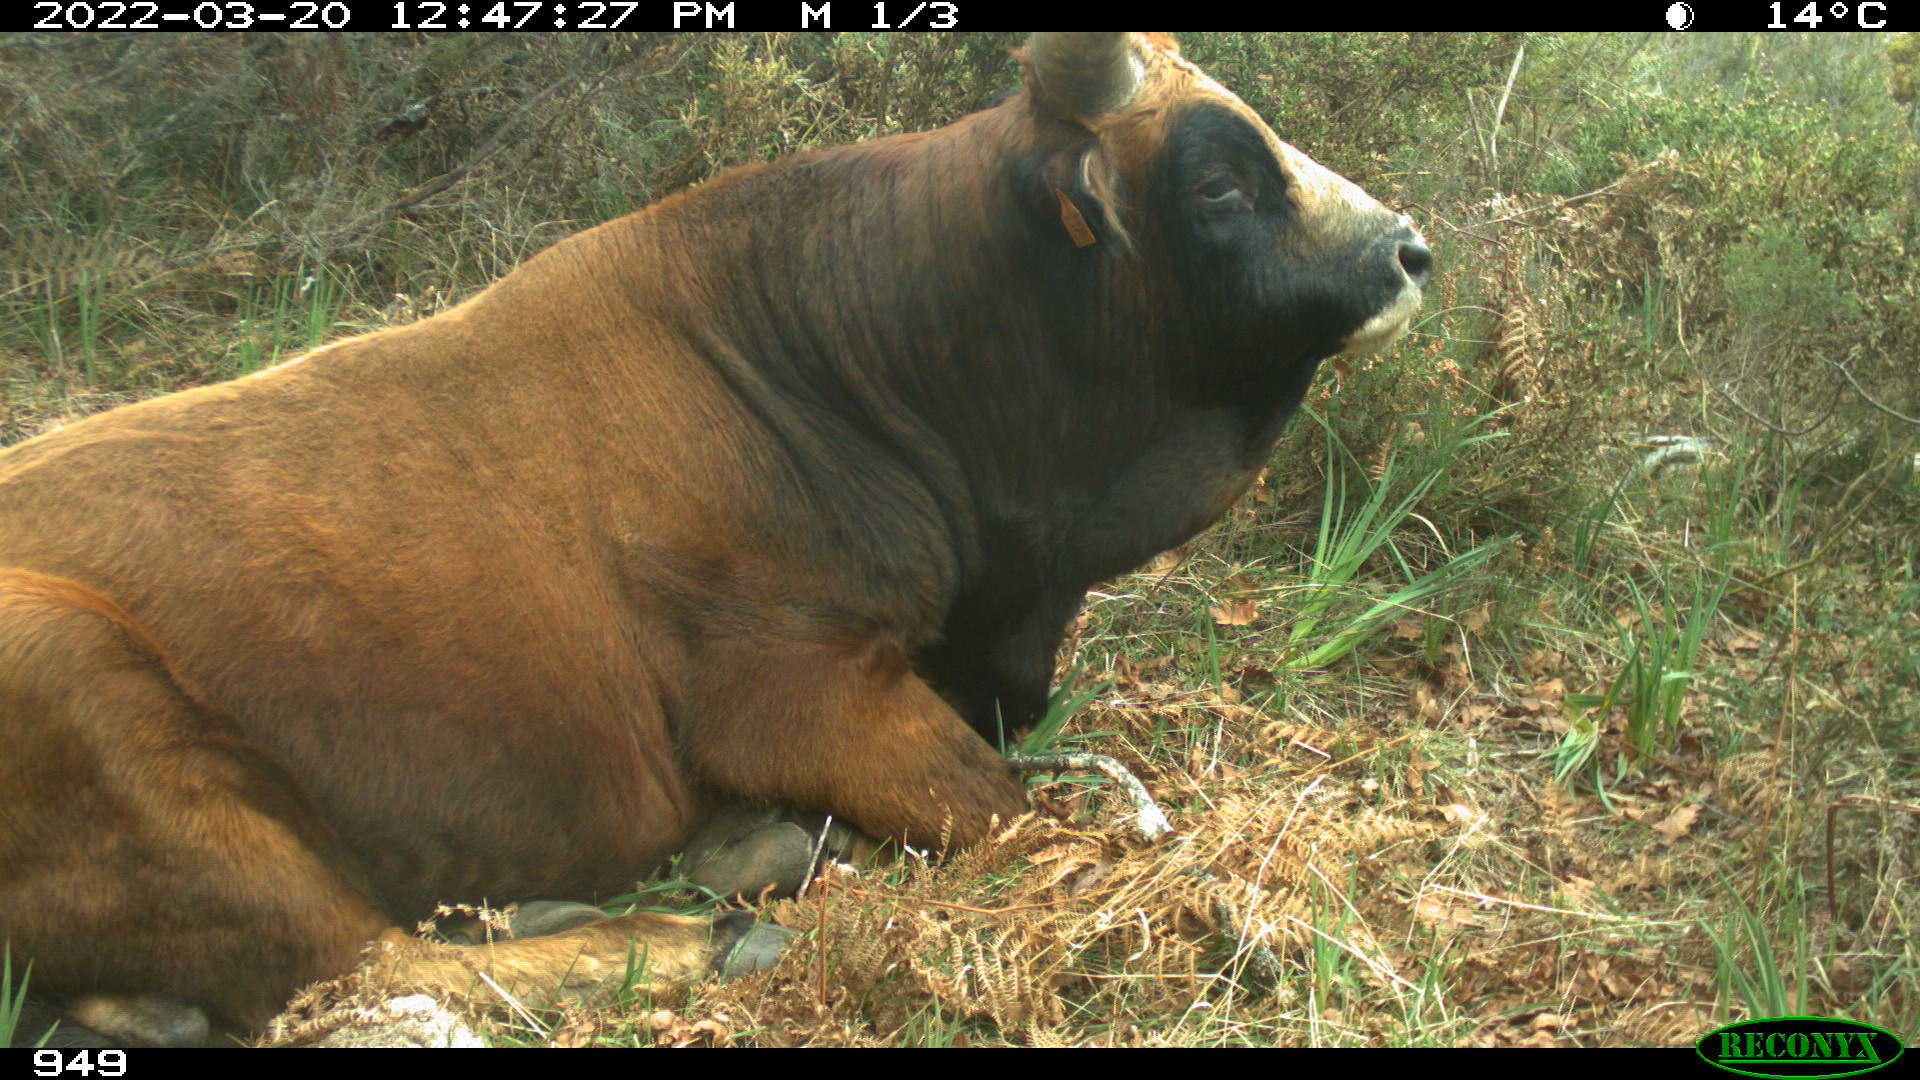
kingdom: Animalia
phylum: Chordata
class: Mammalia
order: Artiodactyla
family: Bovidae
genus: Bos
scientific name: Bos taurus
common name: Domesticated cattle
